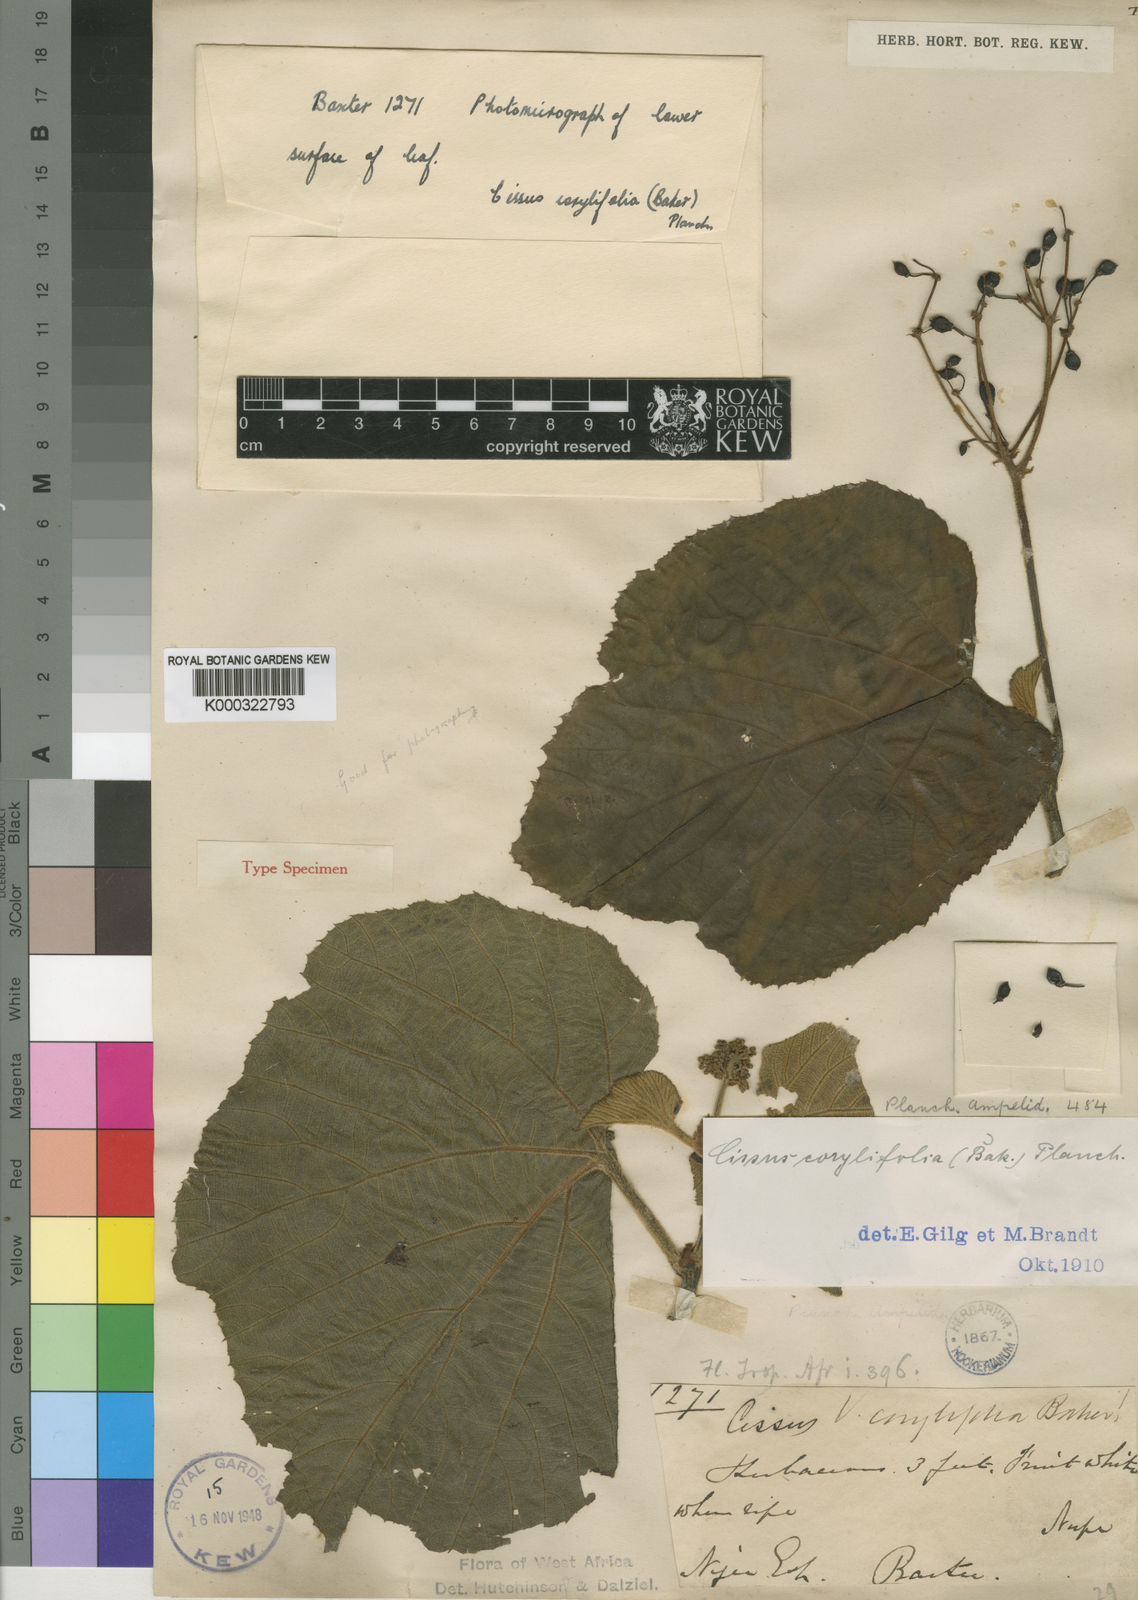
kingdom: Plantae
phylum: Tracheophyta
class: Magnoliopsida
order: Vitales
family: Vitaceae
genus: Cissus
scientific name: Cissus corylifolia
